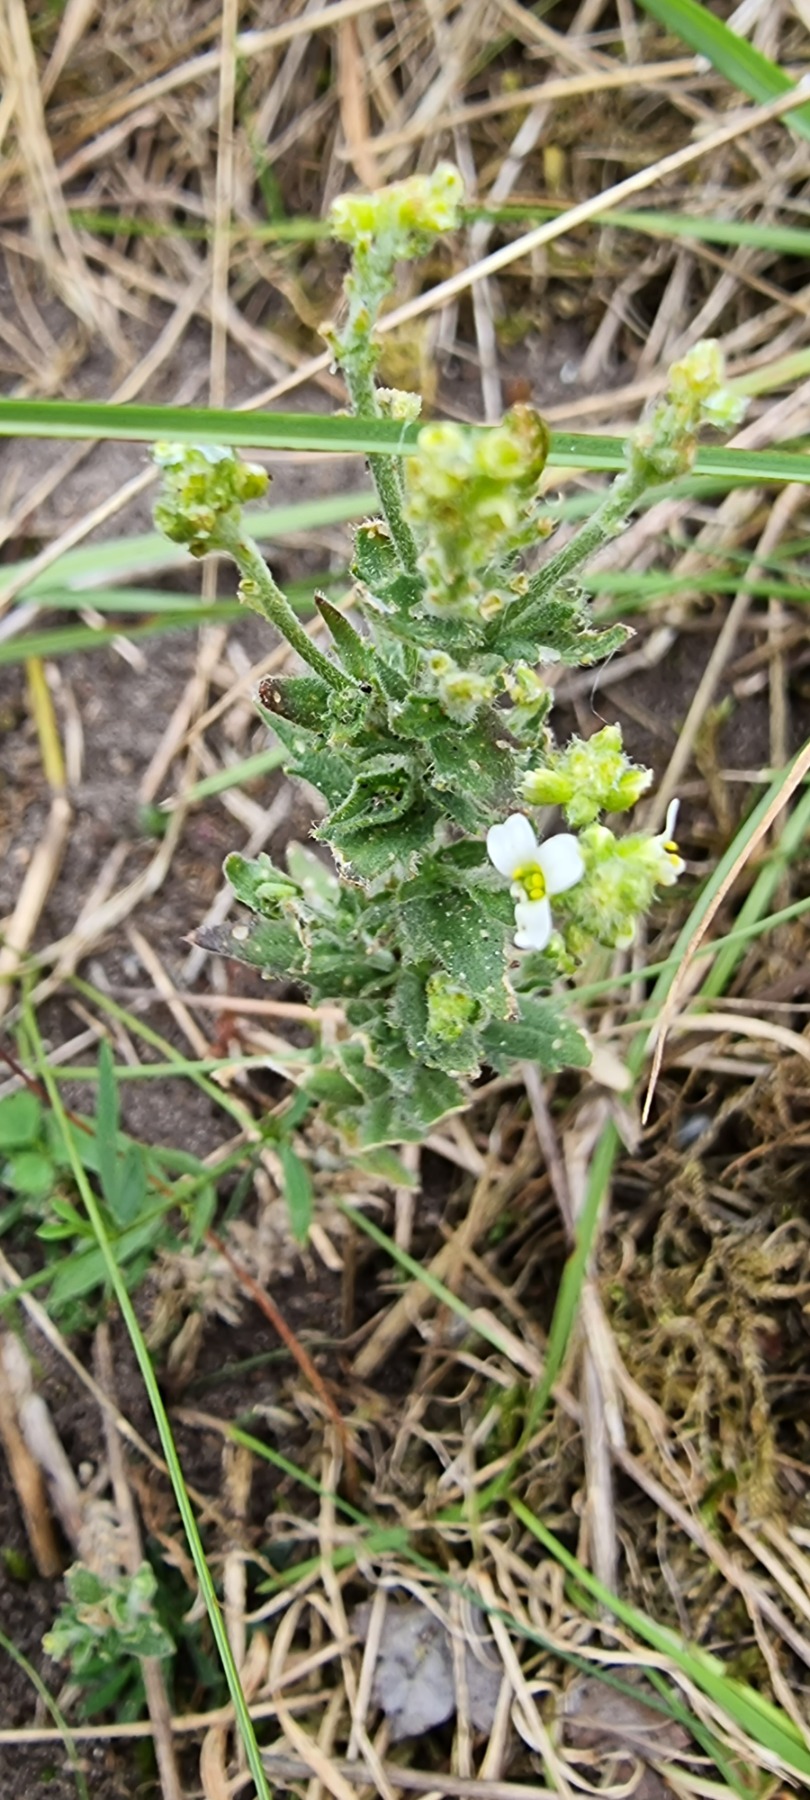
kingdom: Plantae
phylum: Tracheophyta
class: Magnoliopsida
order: Brassicales
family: Brassicaceae
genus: Draba
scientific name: Draba incana
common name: Hvidgrå draba
